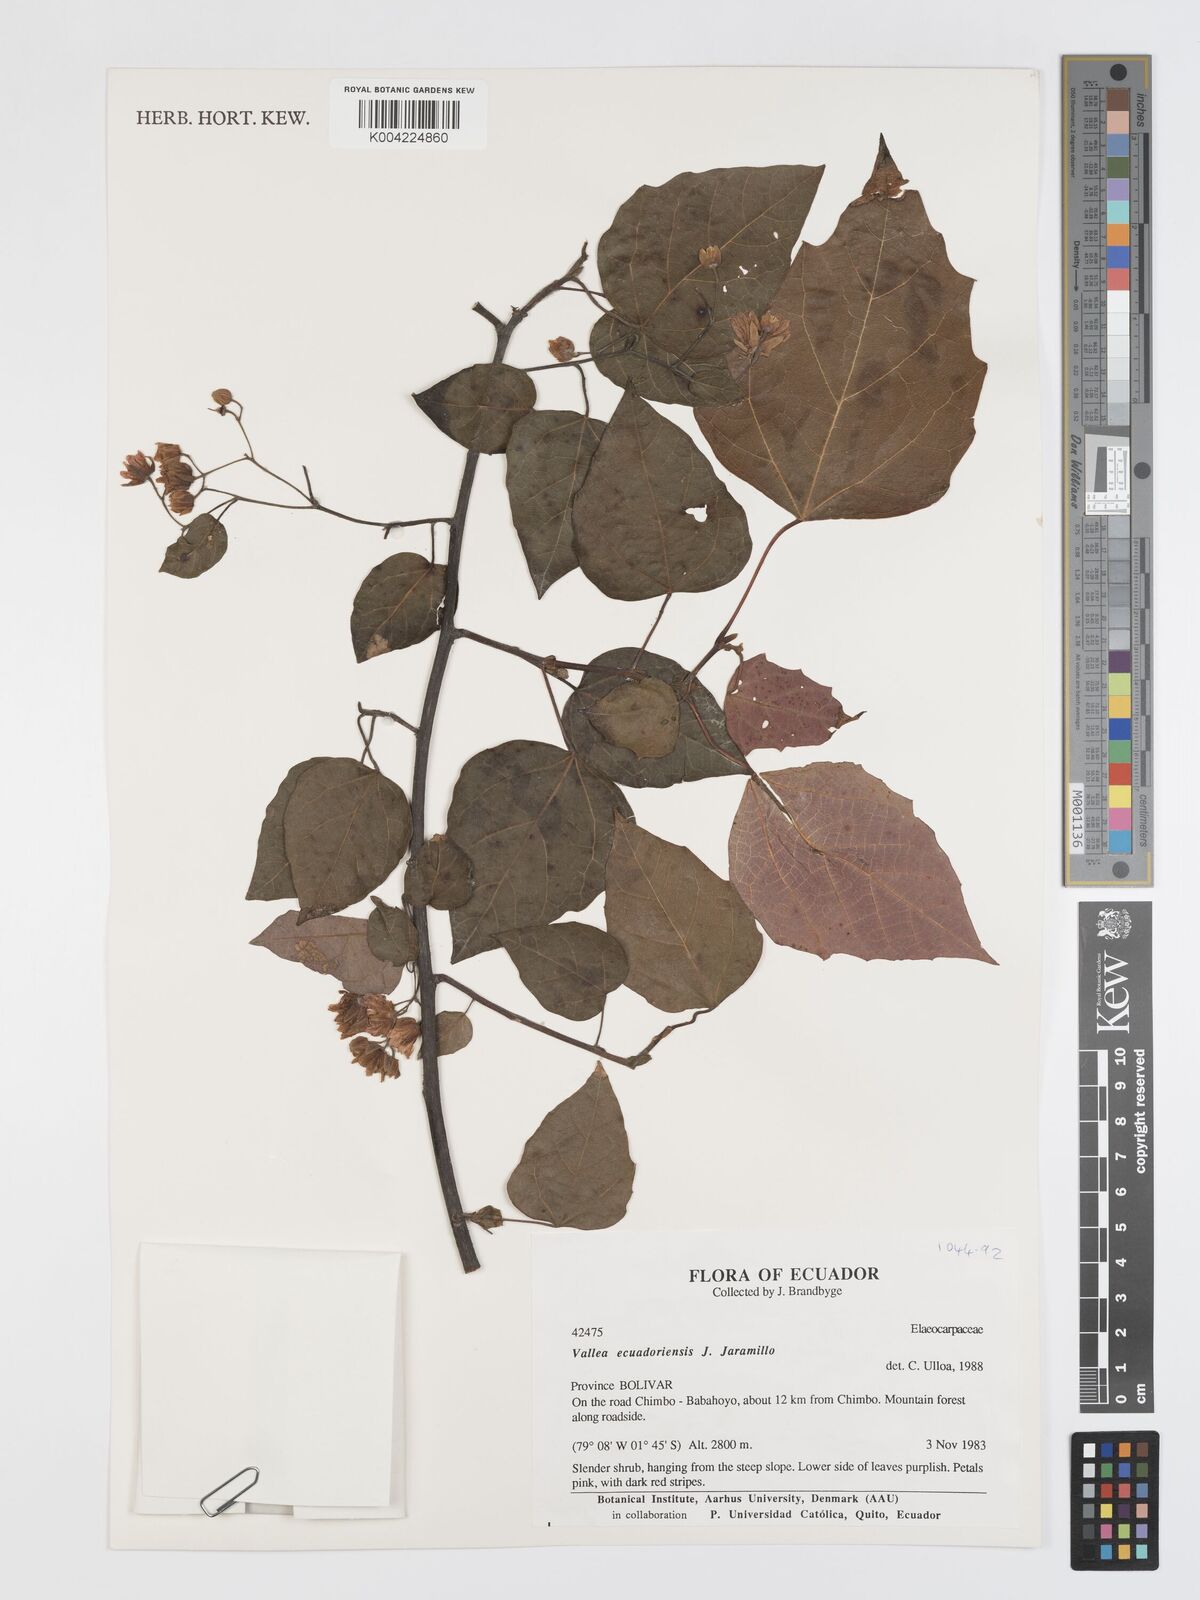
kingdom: Plantae
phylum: Tracheophyta
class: Magnoliopsida
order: Oxalidales
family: Elaeocarpaceae
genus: Vallea
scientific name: Vallea ecuadorensis
